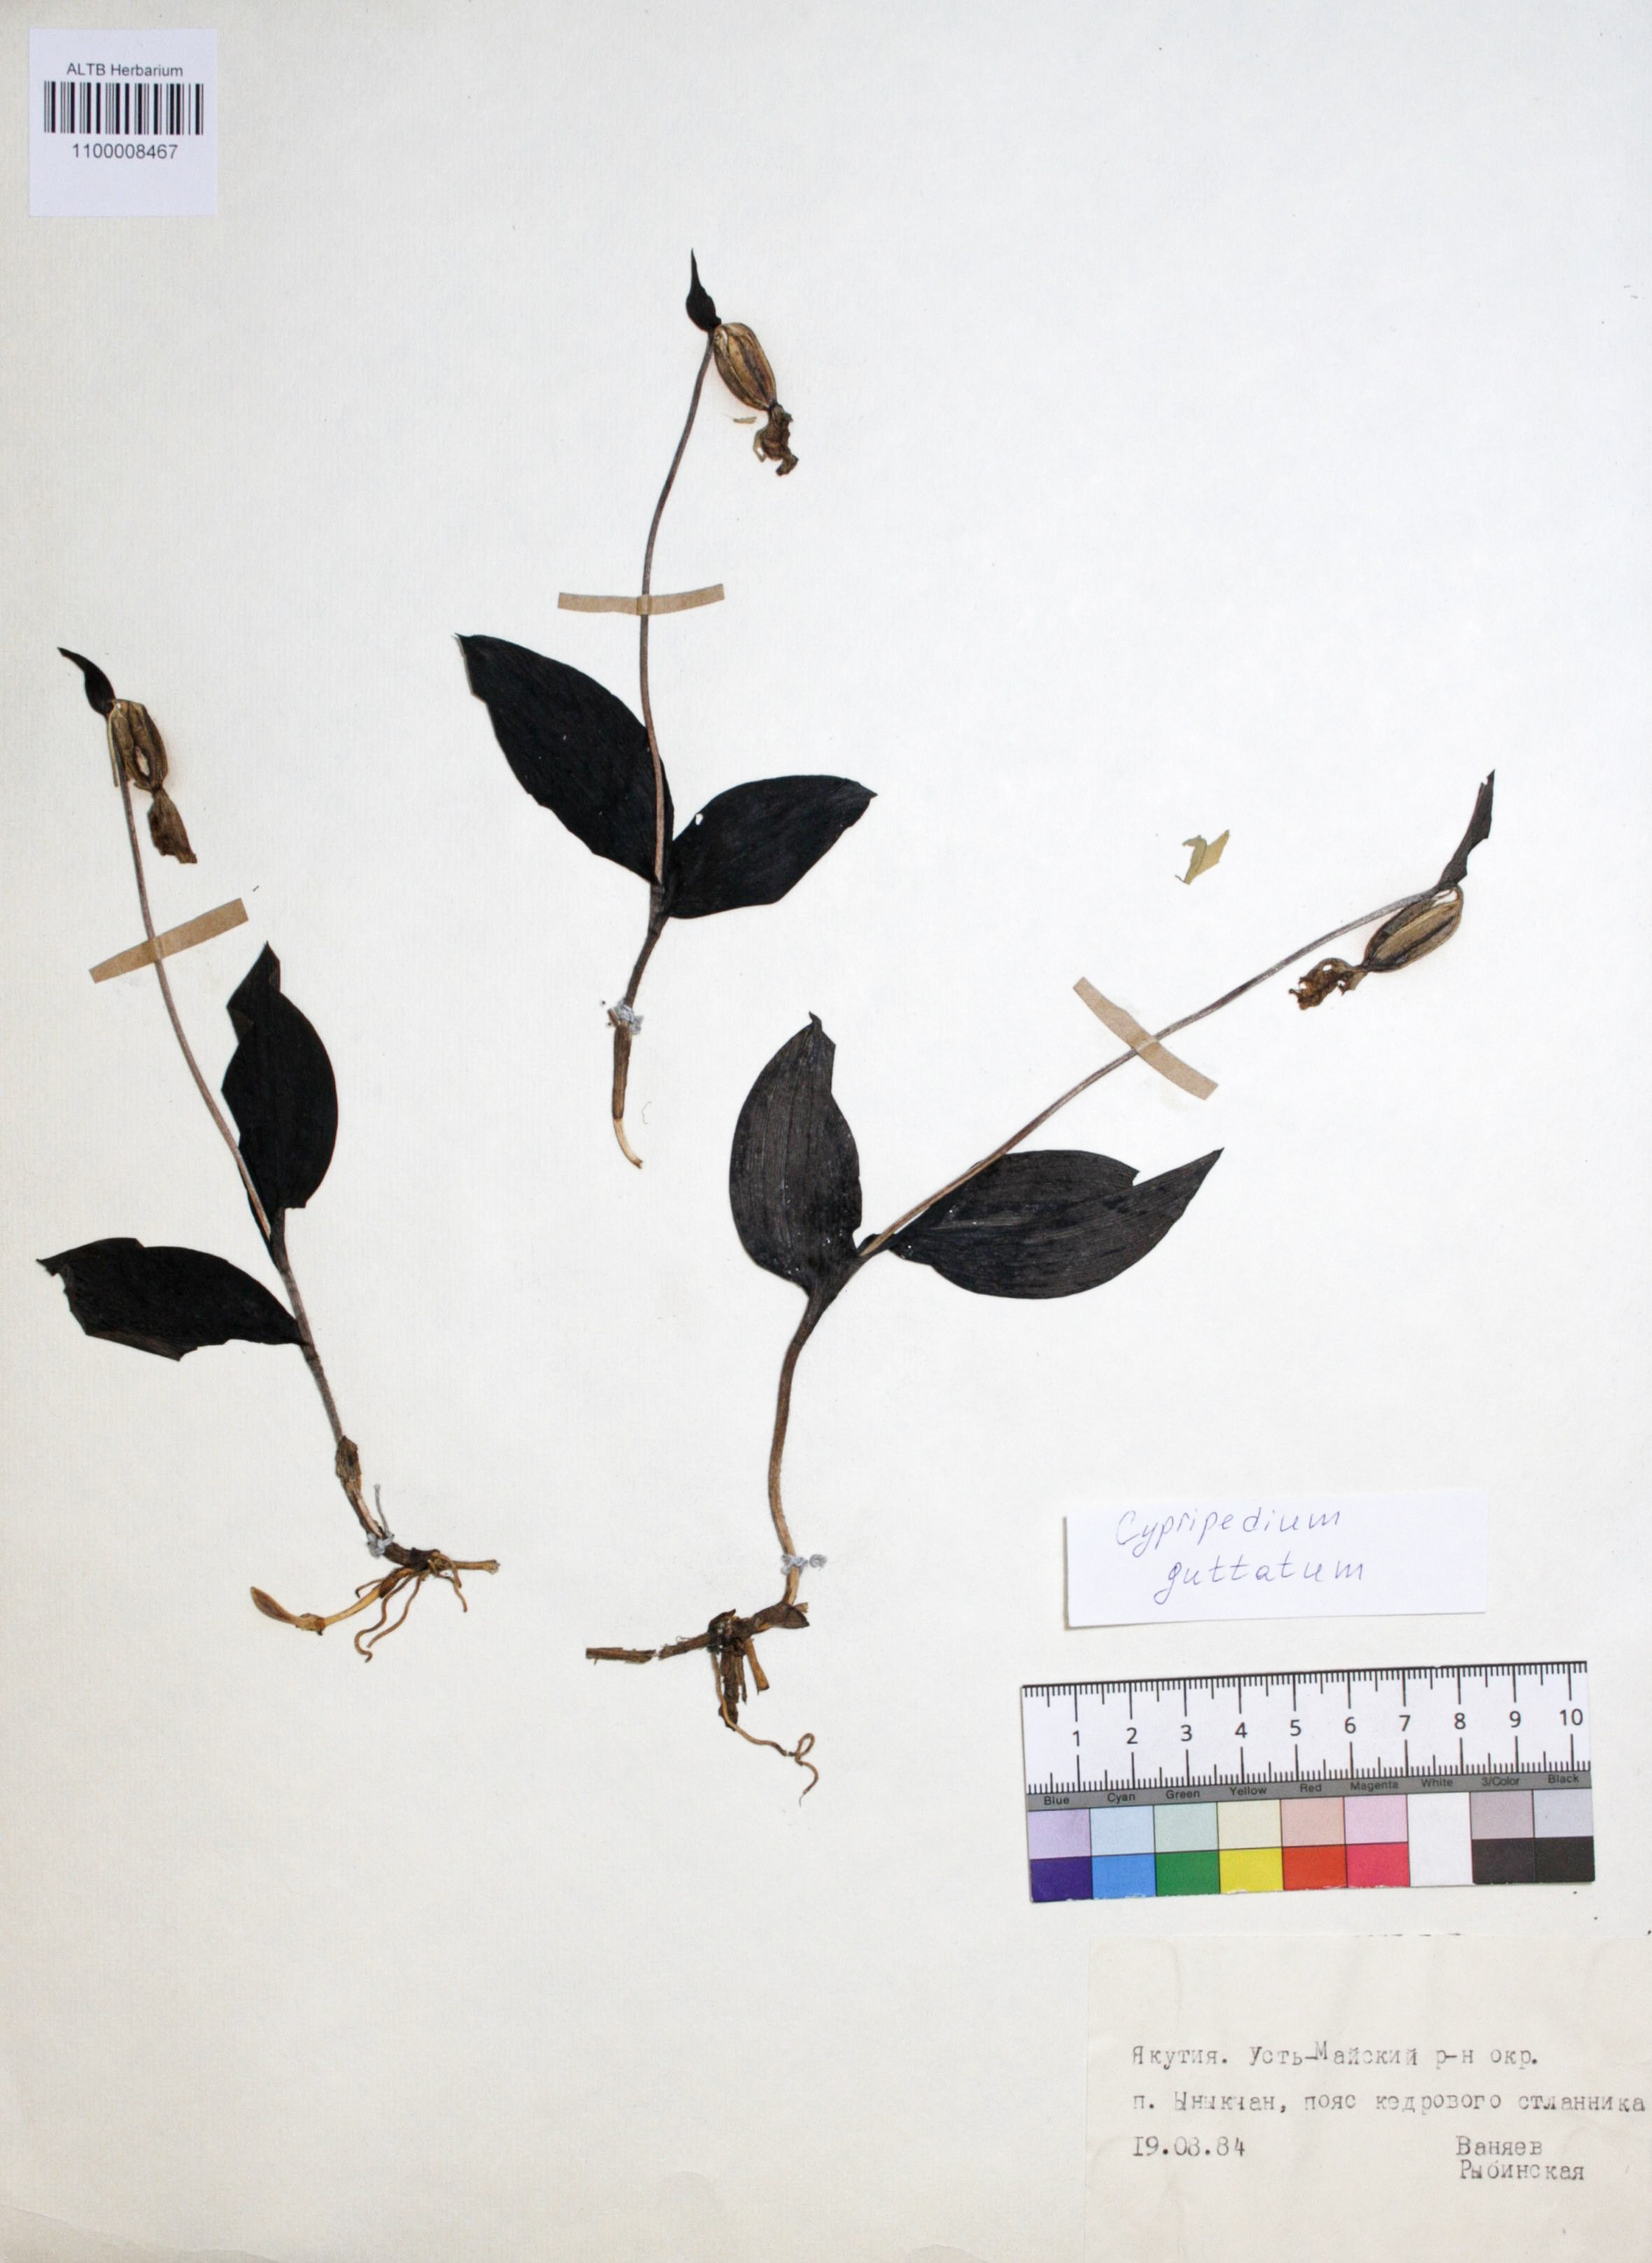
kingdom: Plantae
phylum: Tracheophyta
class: Liliopsida
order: Asparagales
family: Orchidaceae
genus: Cypripedium
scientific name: Cypripedium guttatum
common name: Pink lady slipper
